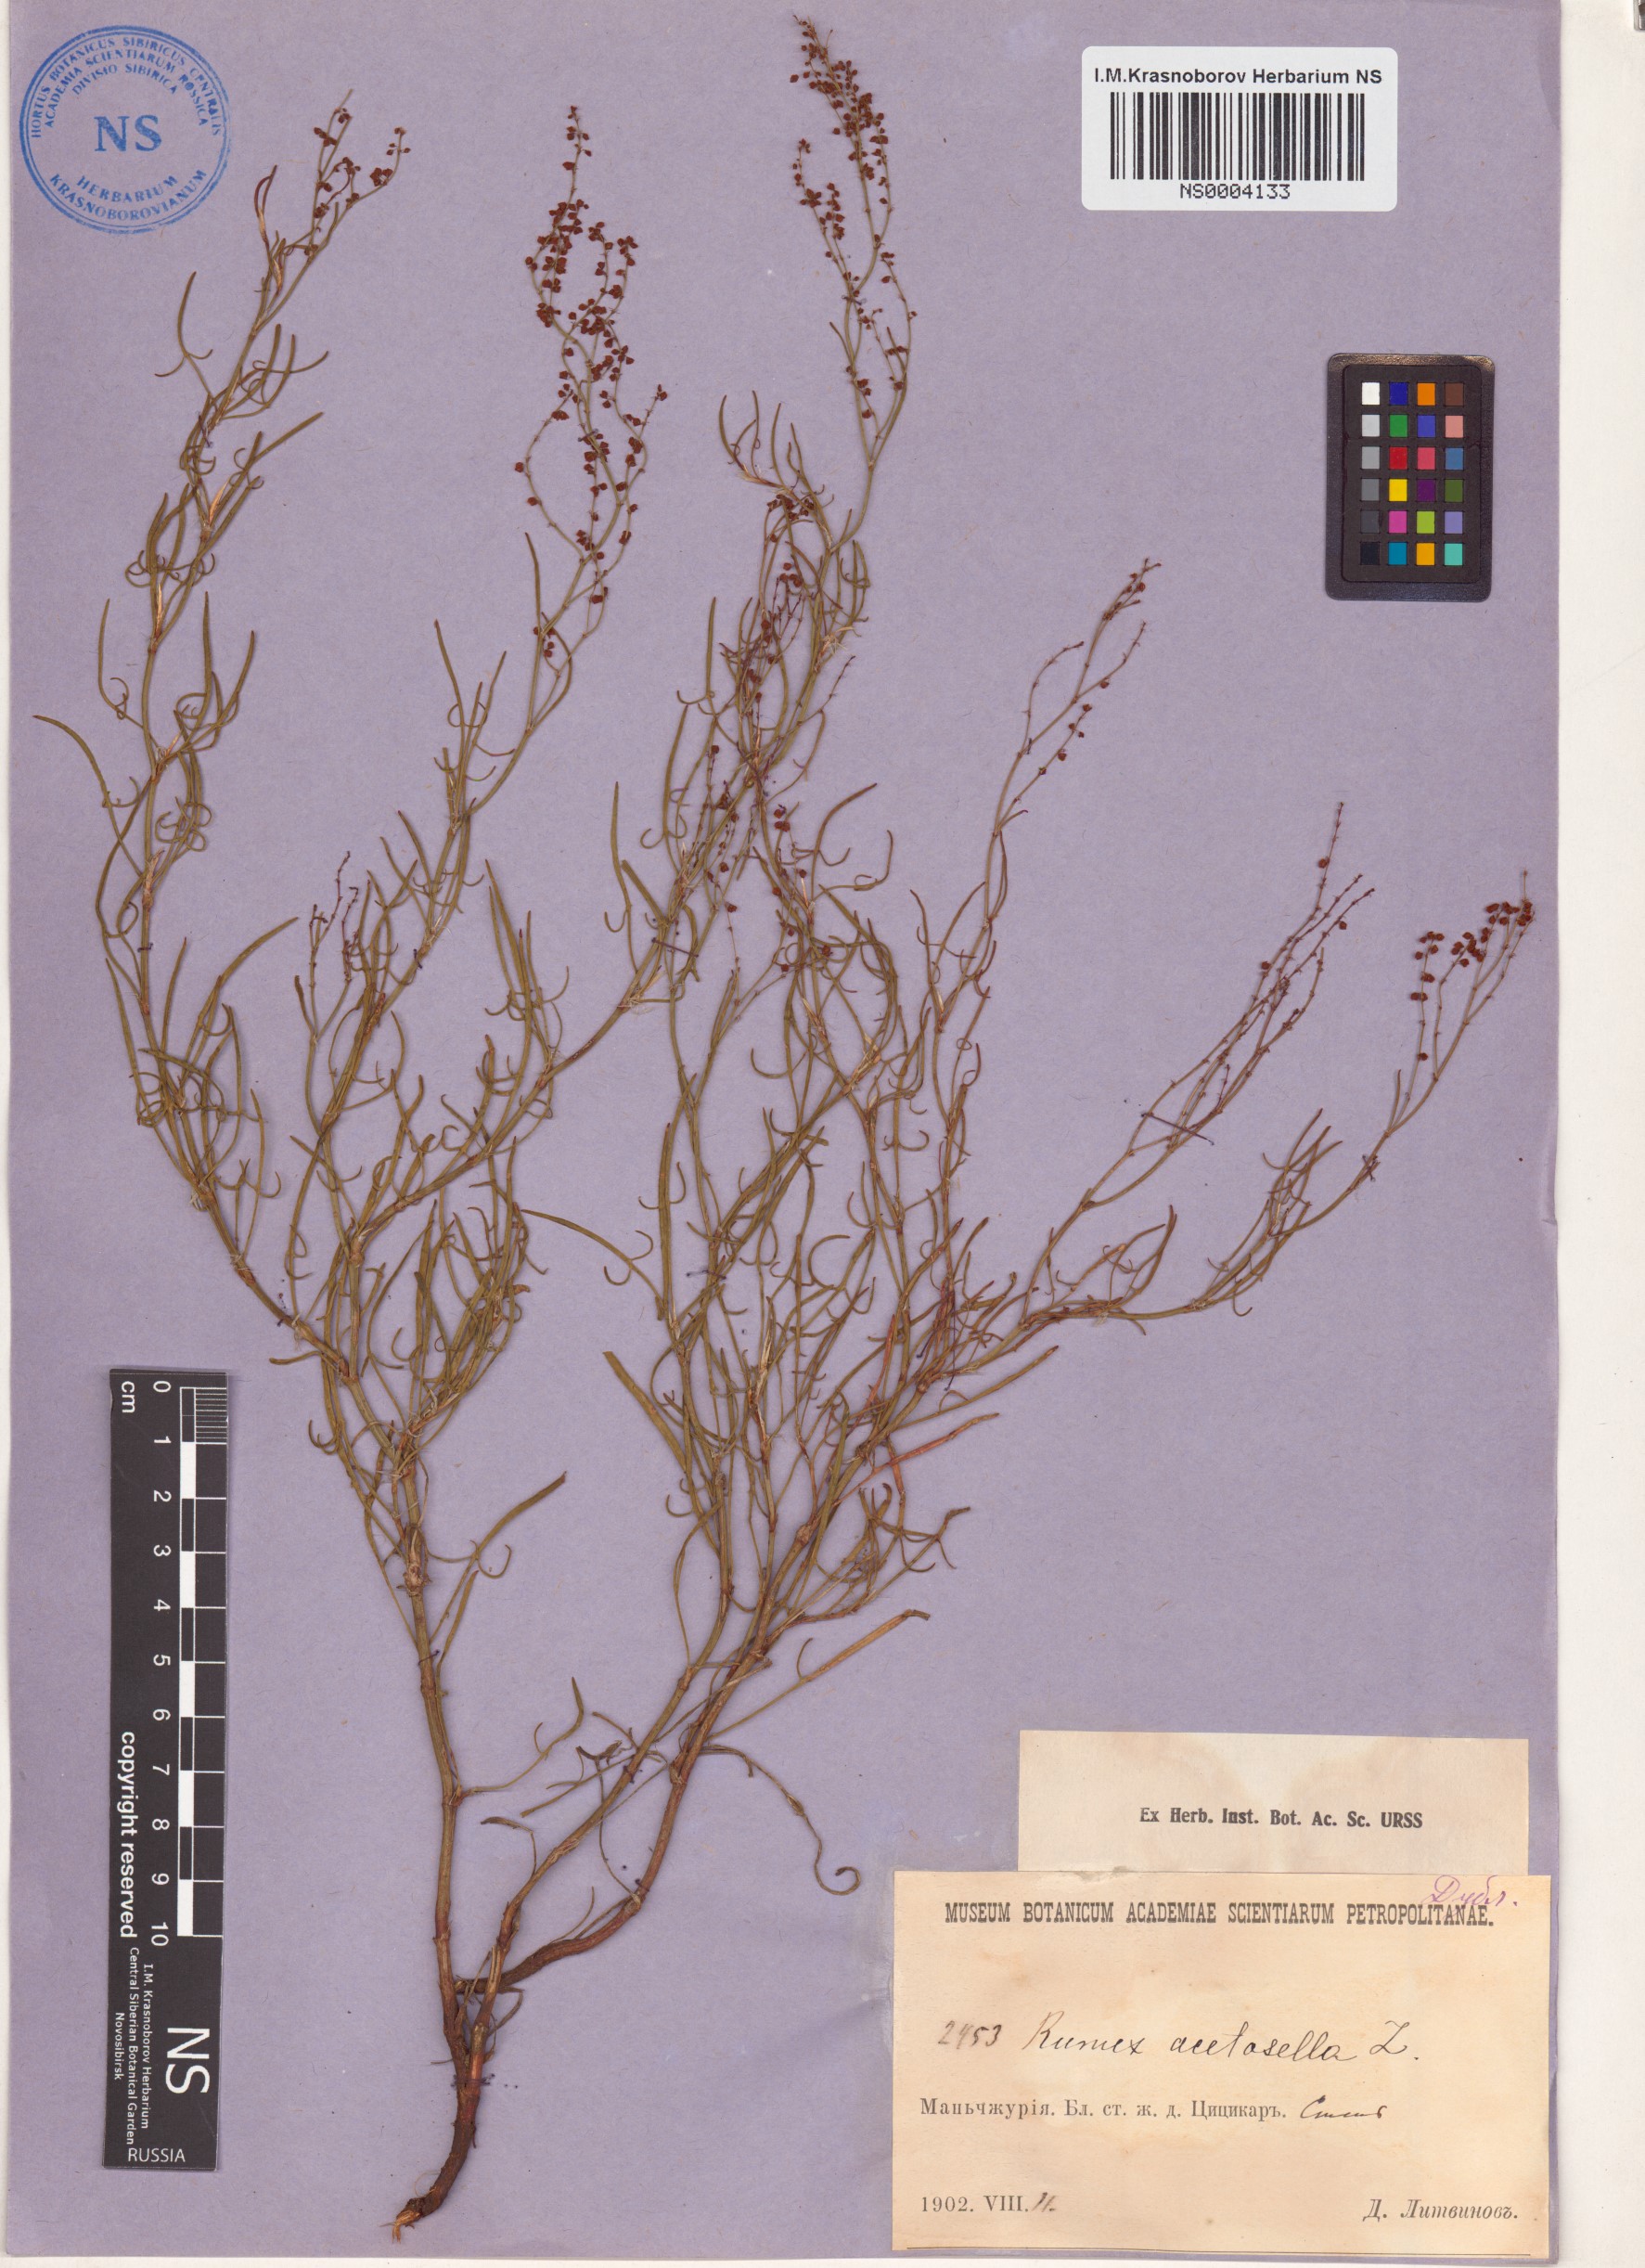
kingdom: Plantae
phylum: Tracheophyta
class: Magnoliopsida
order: Caryophyllales
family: Polygonaceae
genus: Rumex
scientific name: Rumex acetosella
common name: Common sheep sorrel
